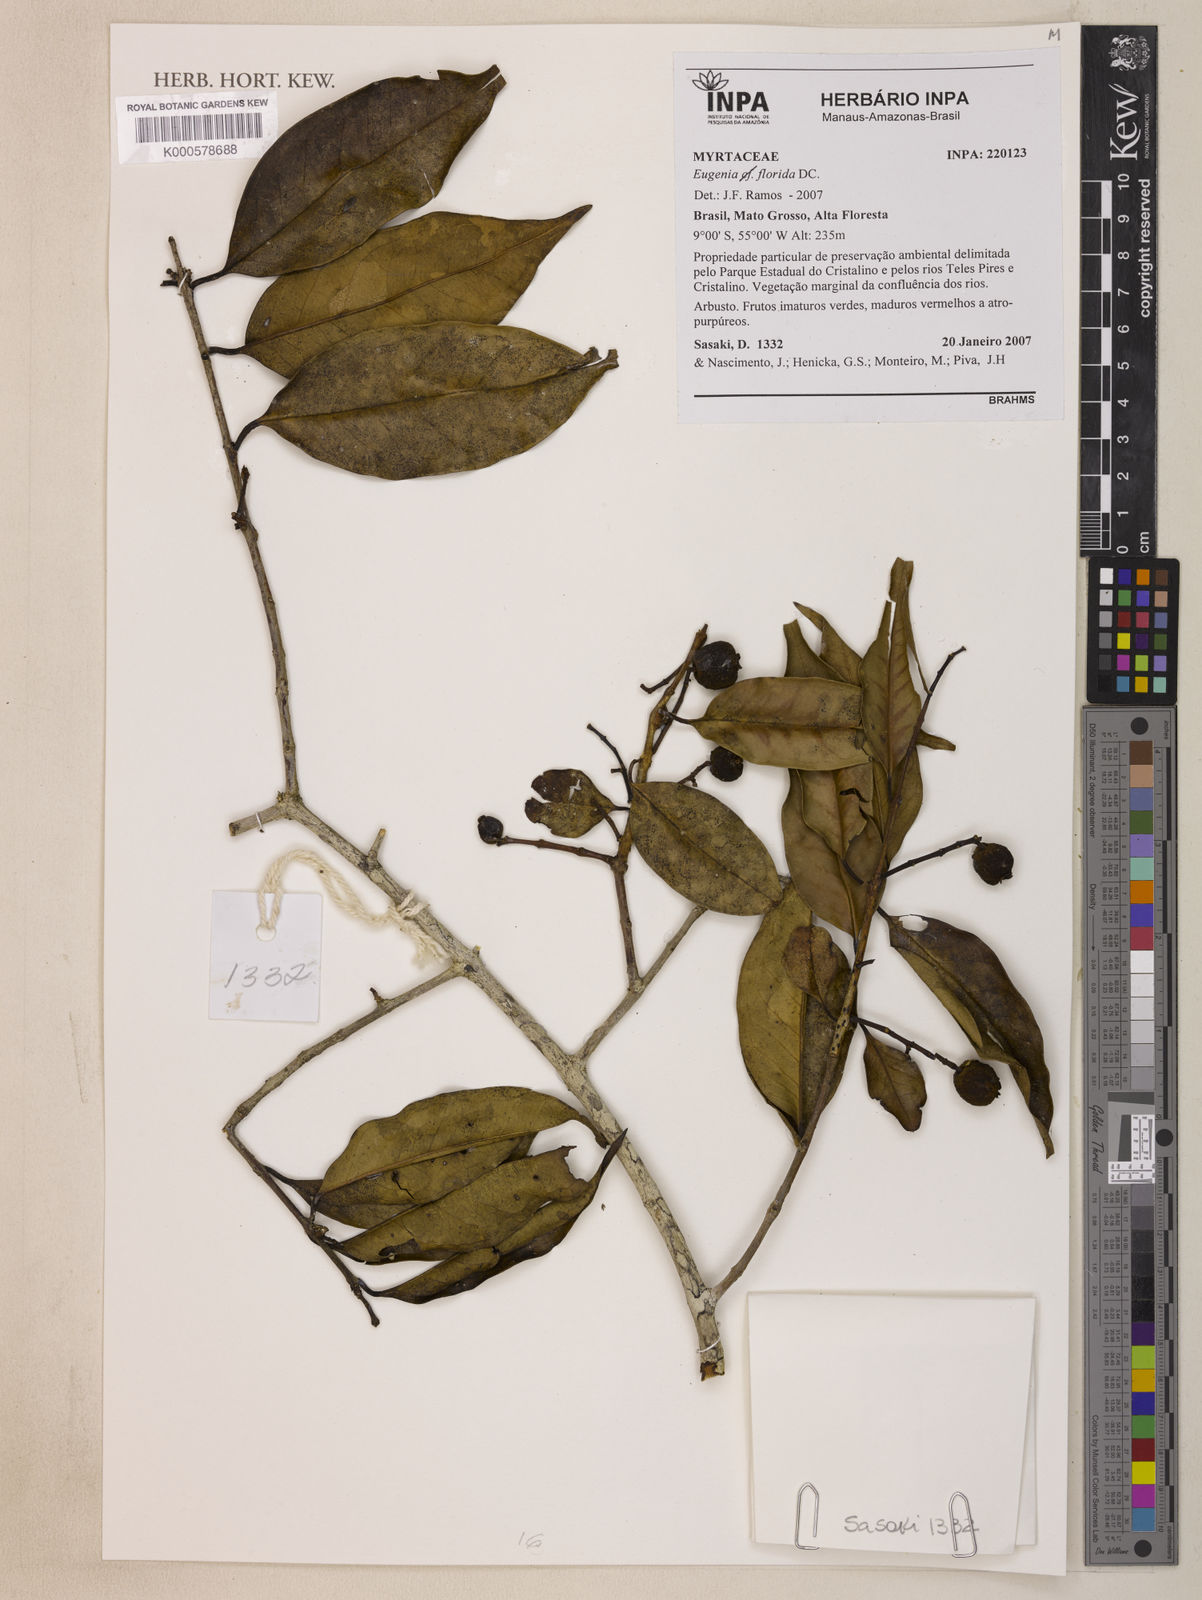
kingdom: Plantae
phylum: Tracheophyta
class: Magnoliopsida
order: Myrtales
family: Myrtaceae
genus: Eugenia
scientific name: Eugenia florida
